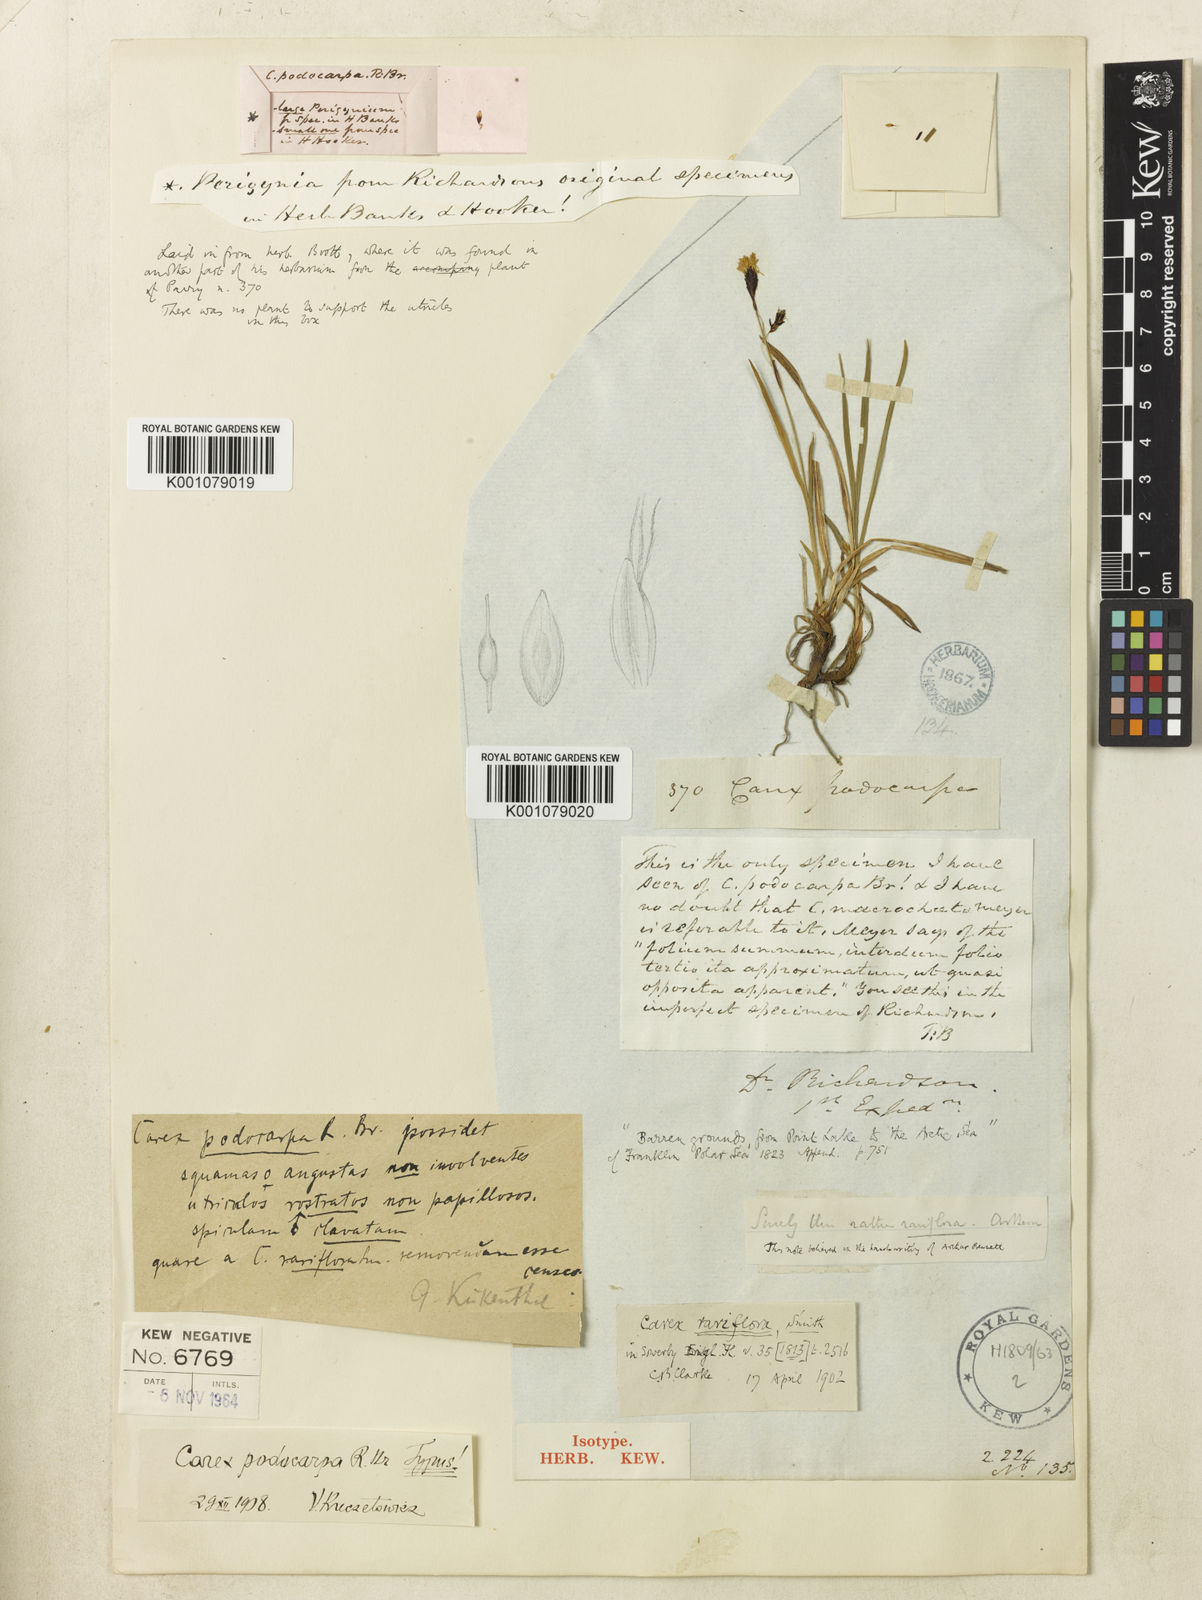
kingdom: Plantae
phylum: Tracheophyta
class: Liliopsida
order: Poales
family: Cyperaceae
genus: Carex
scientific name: Carex podocarpa
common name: Alpine sedge
